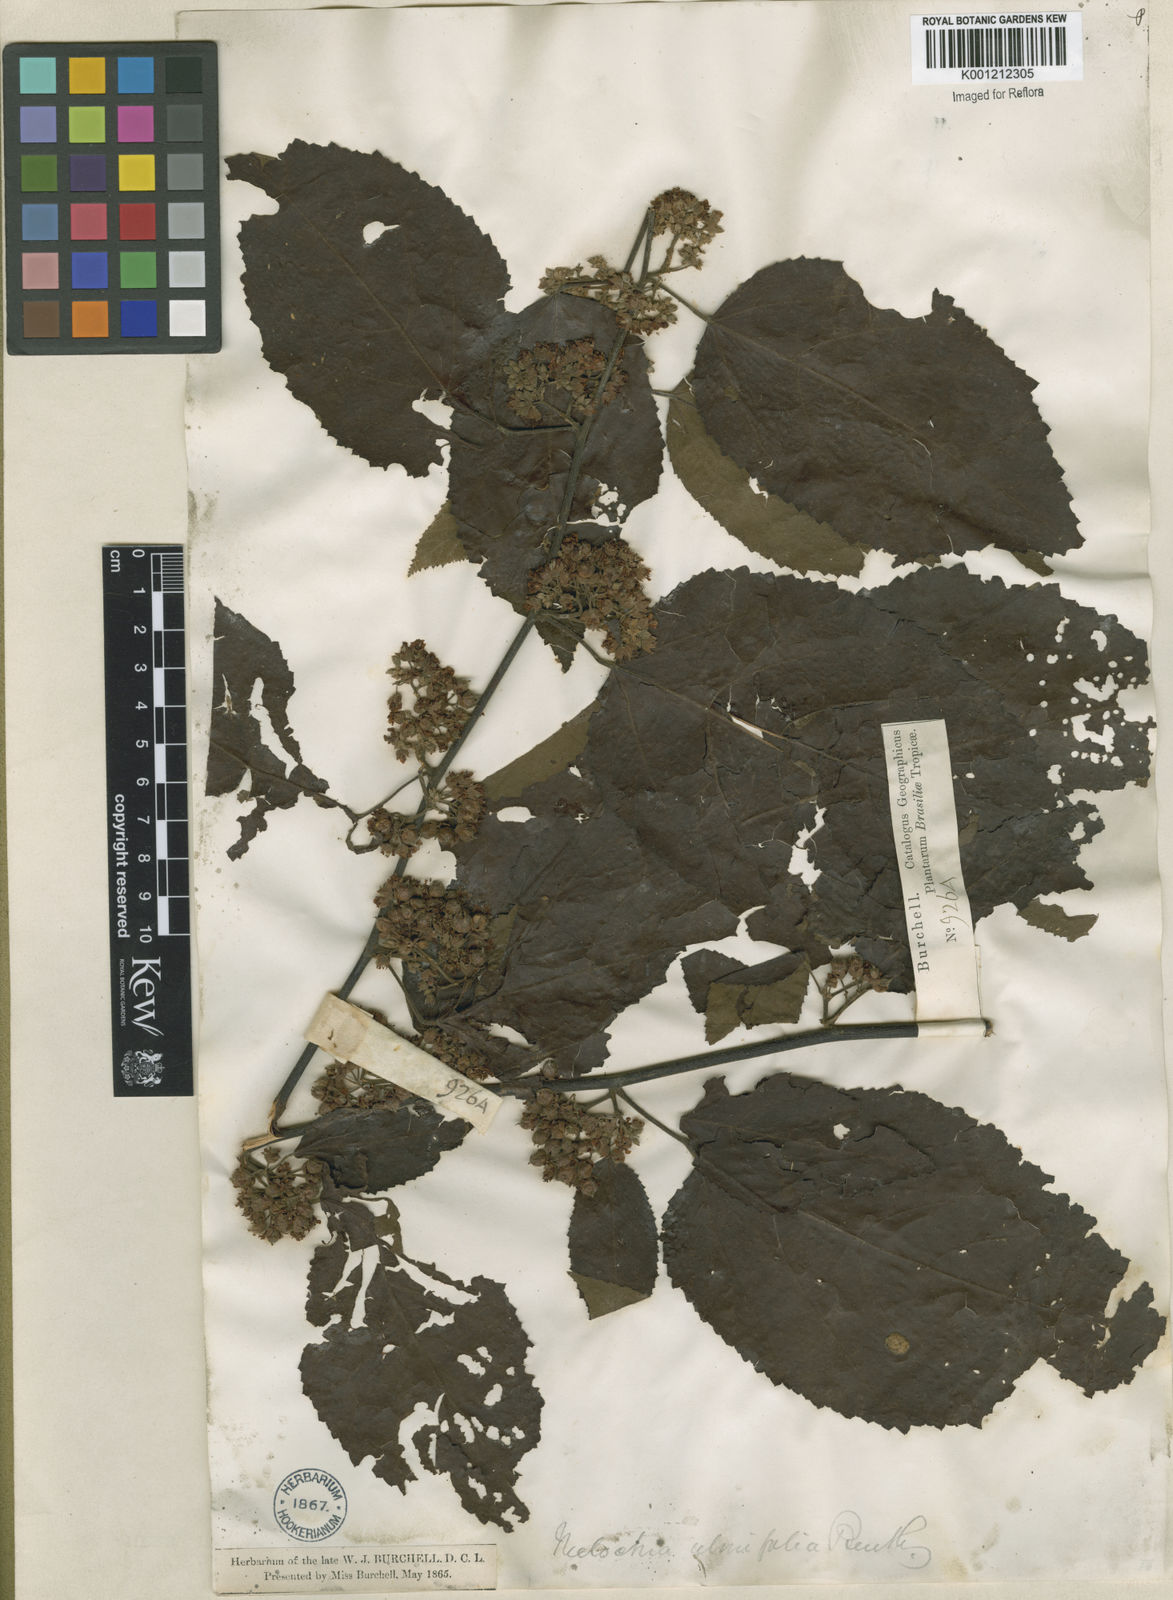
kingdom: Plantae
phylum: Tracheophyta
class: Magnoliopsida
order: Malvales
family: Malvaceae
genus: Melochia
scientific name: Melochia ulmifolia
